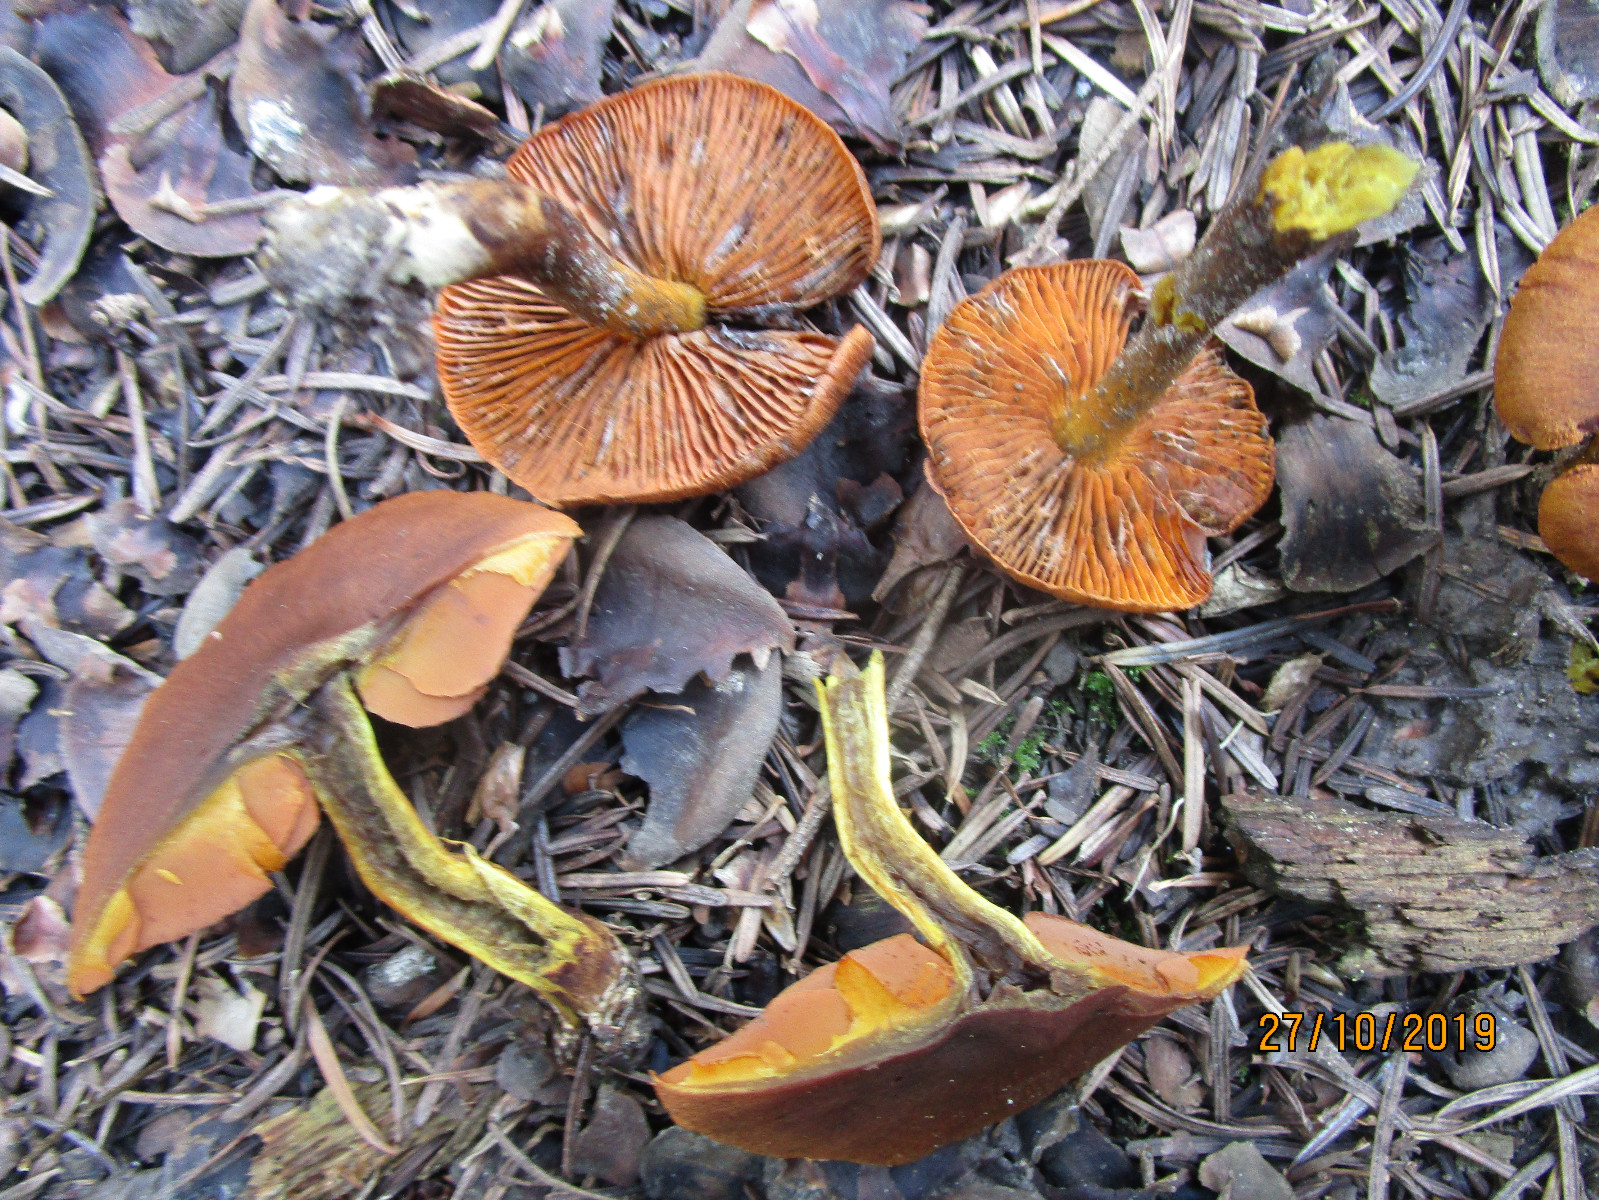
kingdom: Fungi
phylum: Basidiomycota
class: Agaricomycetes
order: Agaricales
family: Cortinariaceae
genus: Cortinarius
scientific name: Cortinarius malicorius
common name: grønkødet slørhat
